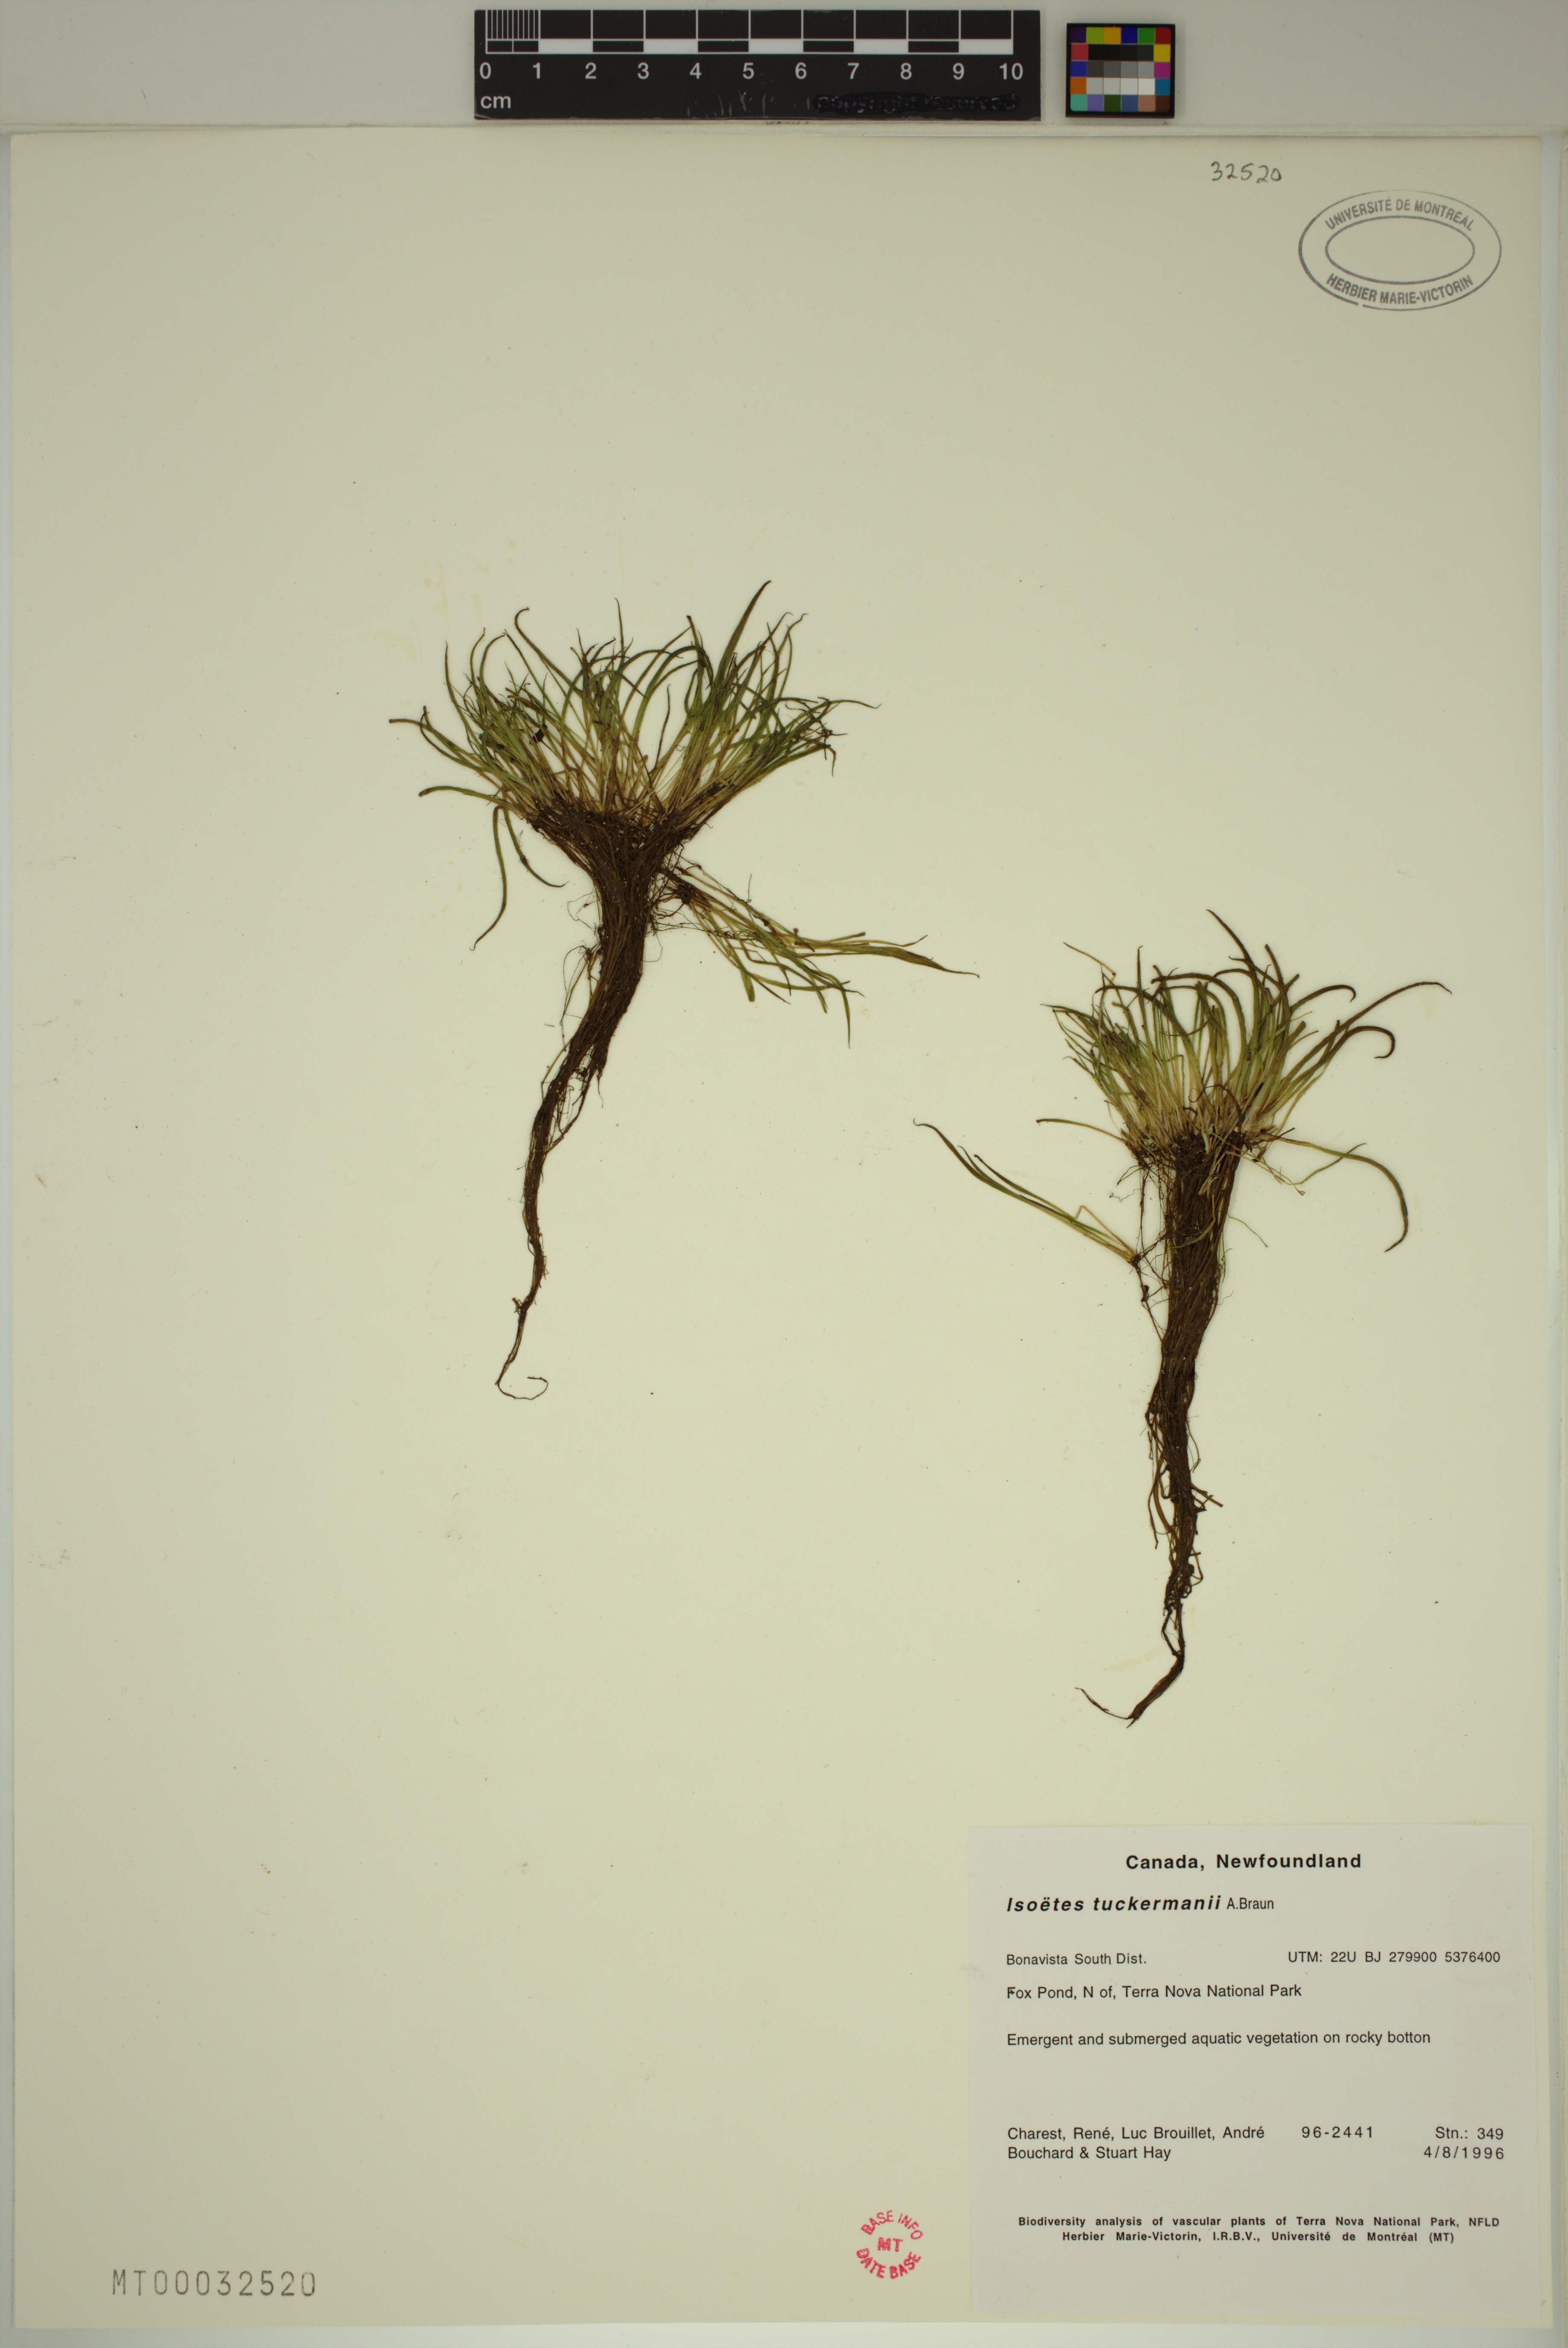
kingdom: Plantae
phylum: Tracheophyta
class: Lycopodiopsida
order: Isoetales
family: Isoetaceae
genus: Isoetes
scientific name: Isoetes tuckermanii
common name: Tuckerman's quillwort
